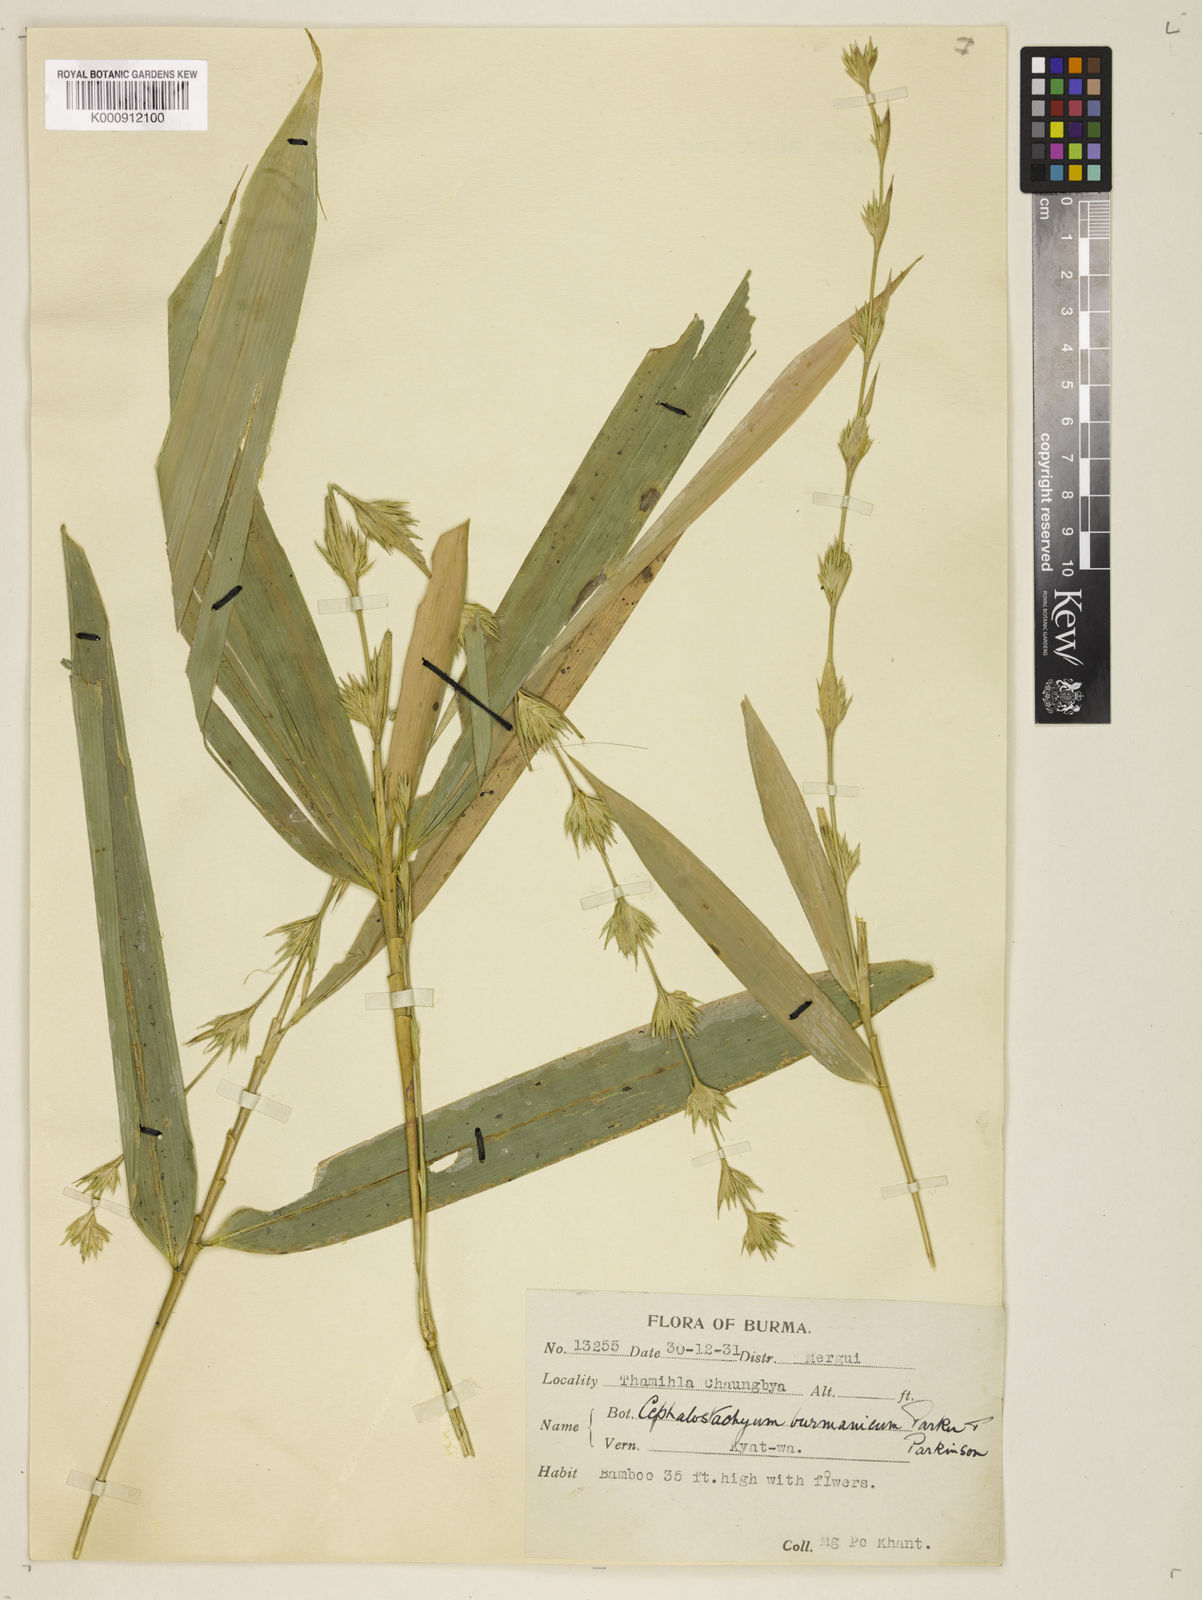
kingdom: Plantae
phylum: Tracheophyta
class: Liliopsida
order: Poales
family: Poaceae
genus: Cephalostachyum
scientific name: Cephalostachyum burmanicum
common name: Burma bambooshrub
